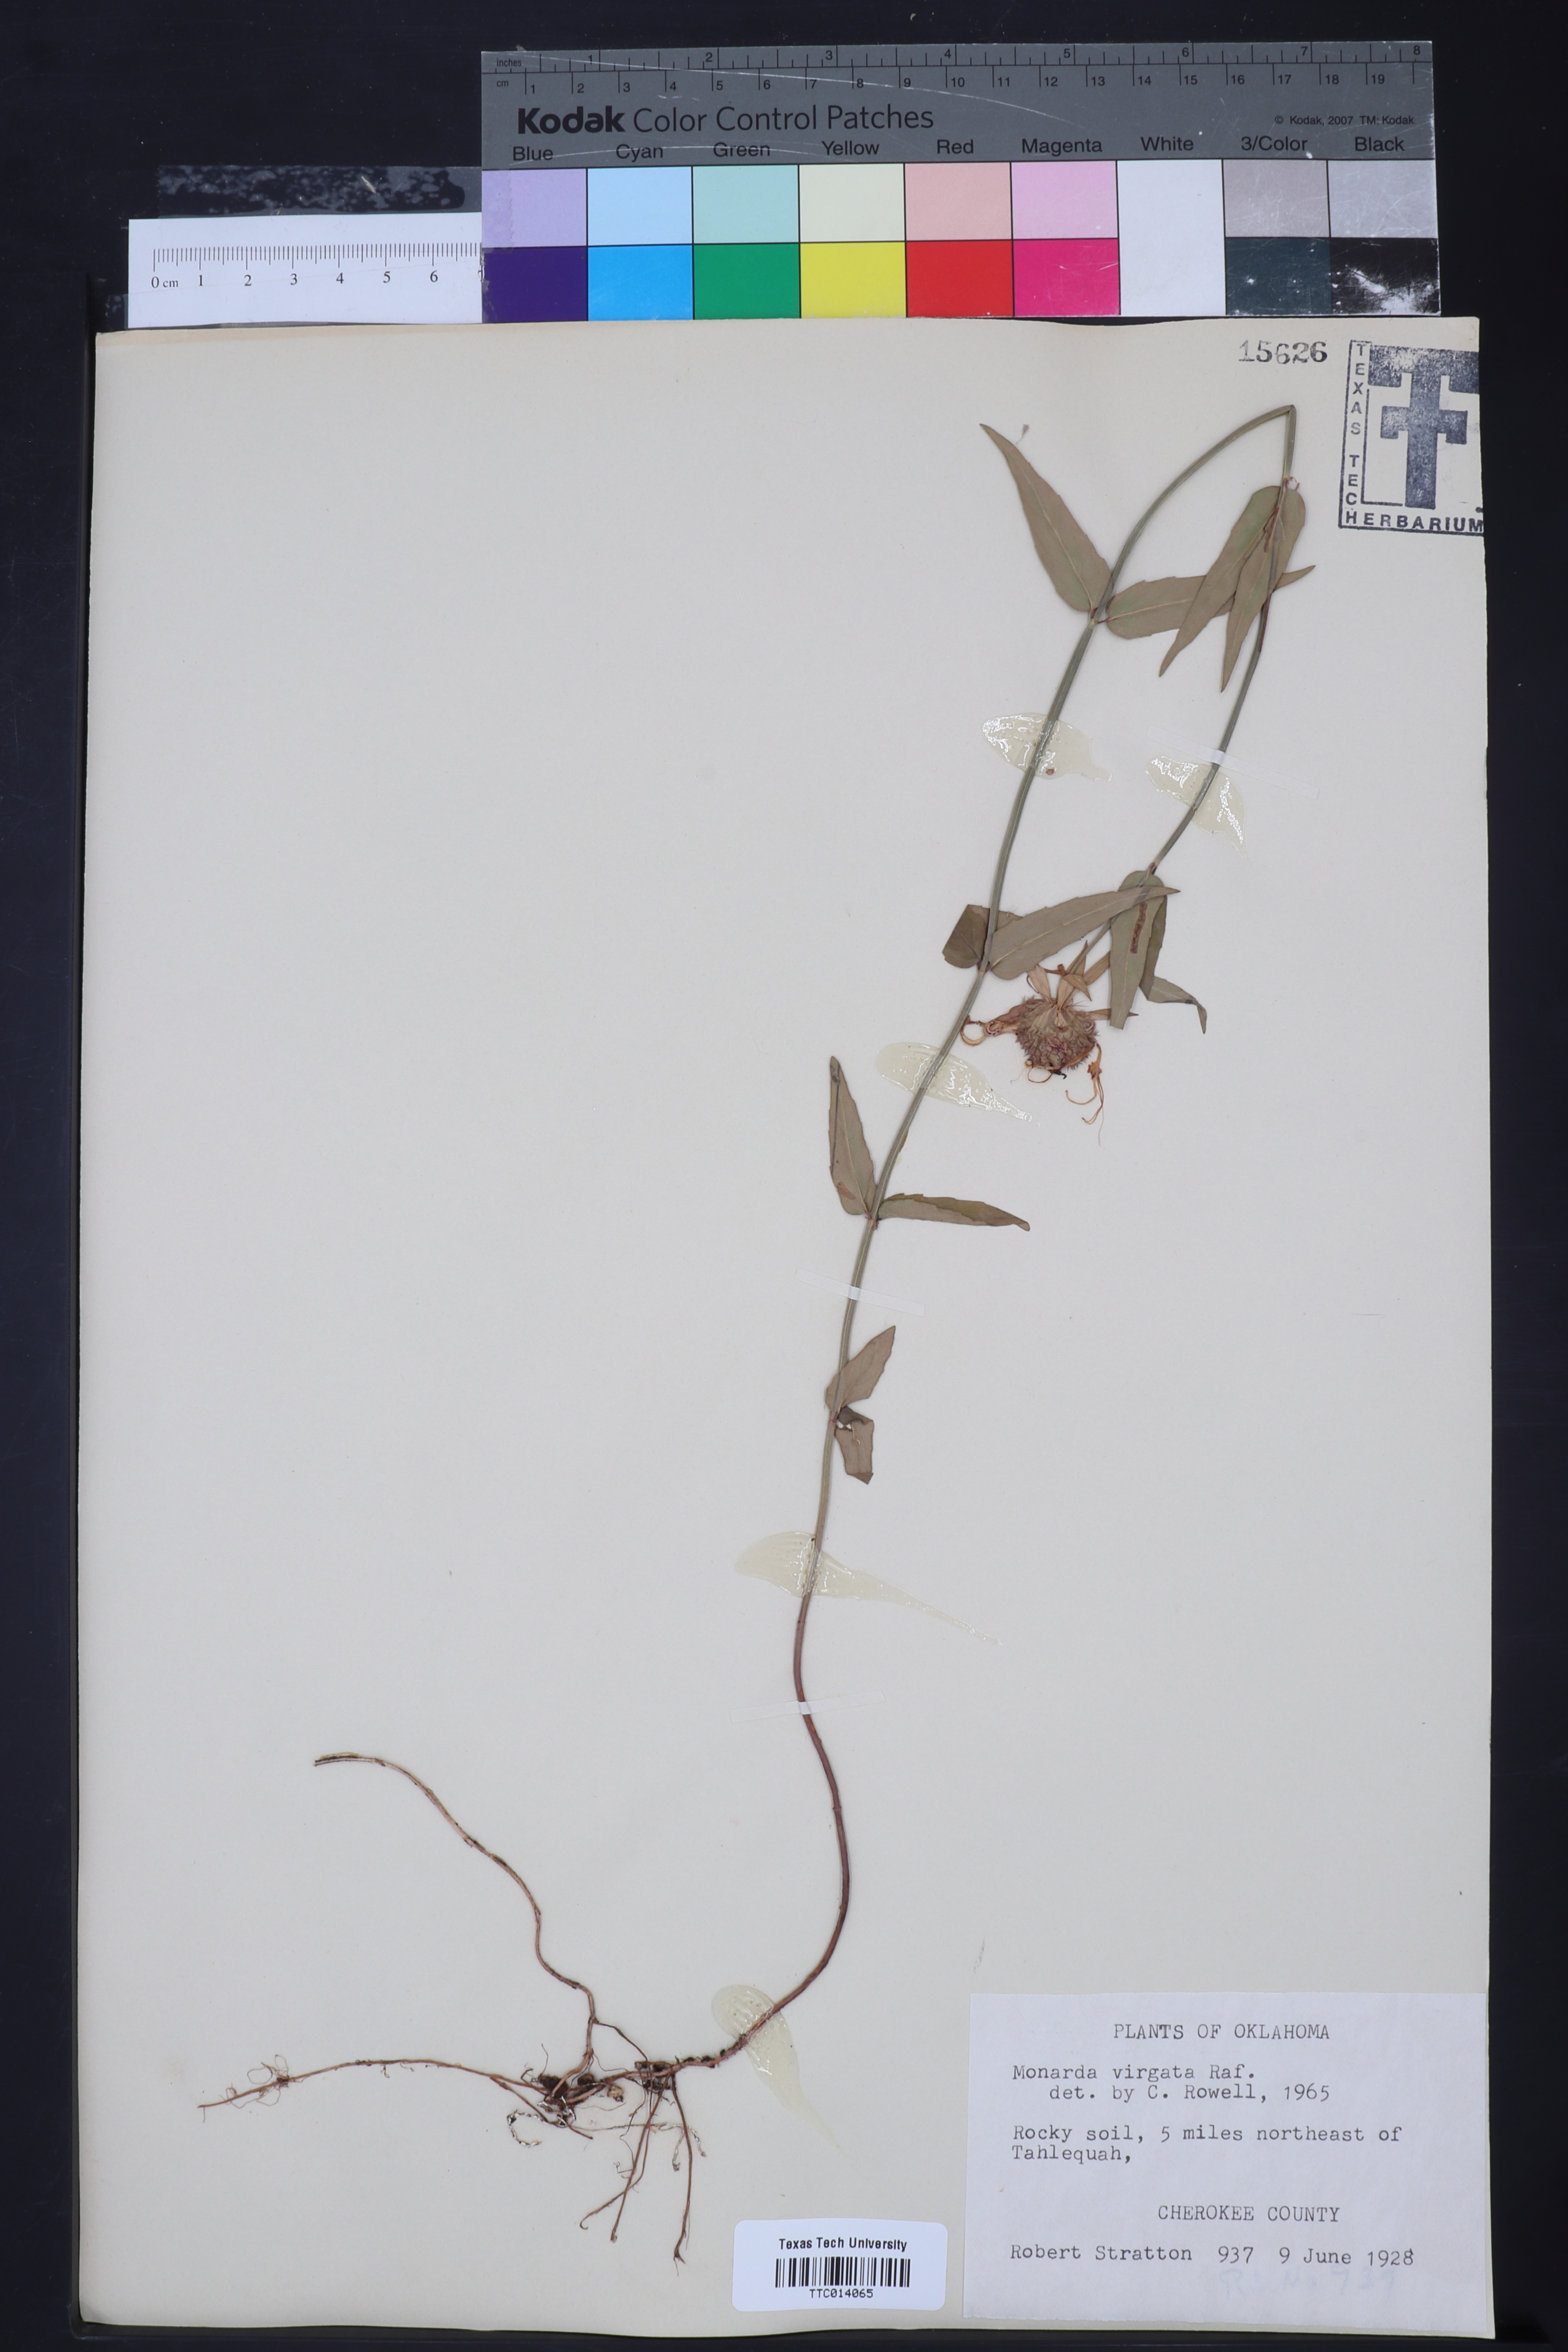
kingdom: Plantae
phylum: Tracheophyta
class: Magnoliopsida
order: Lamiales
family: Lamiaceae
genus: Monarda
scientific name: Monarda russeliana
